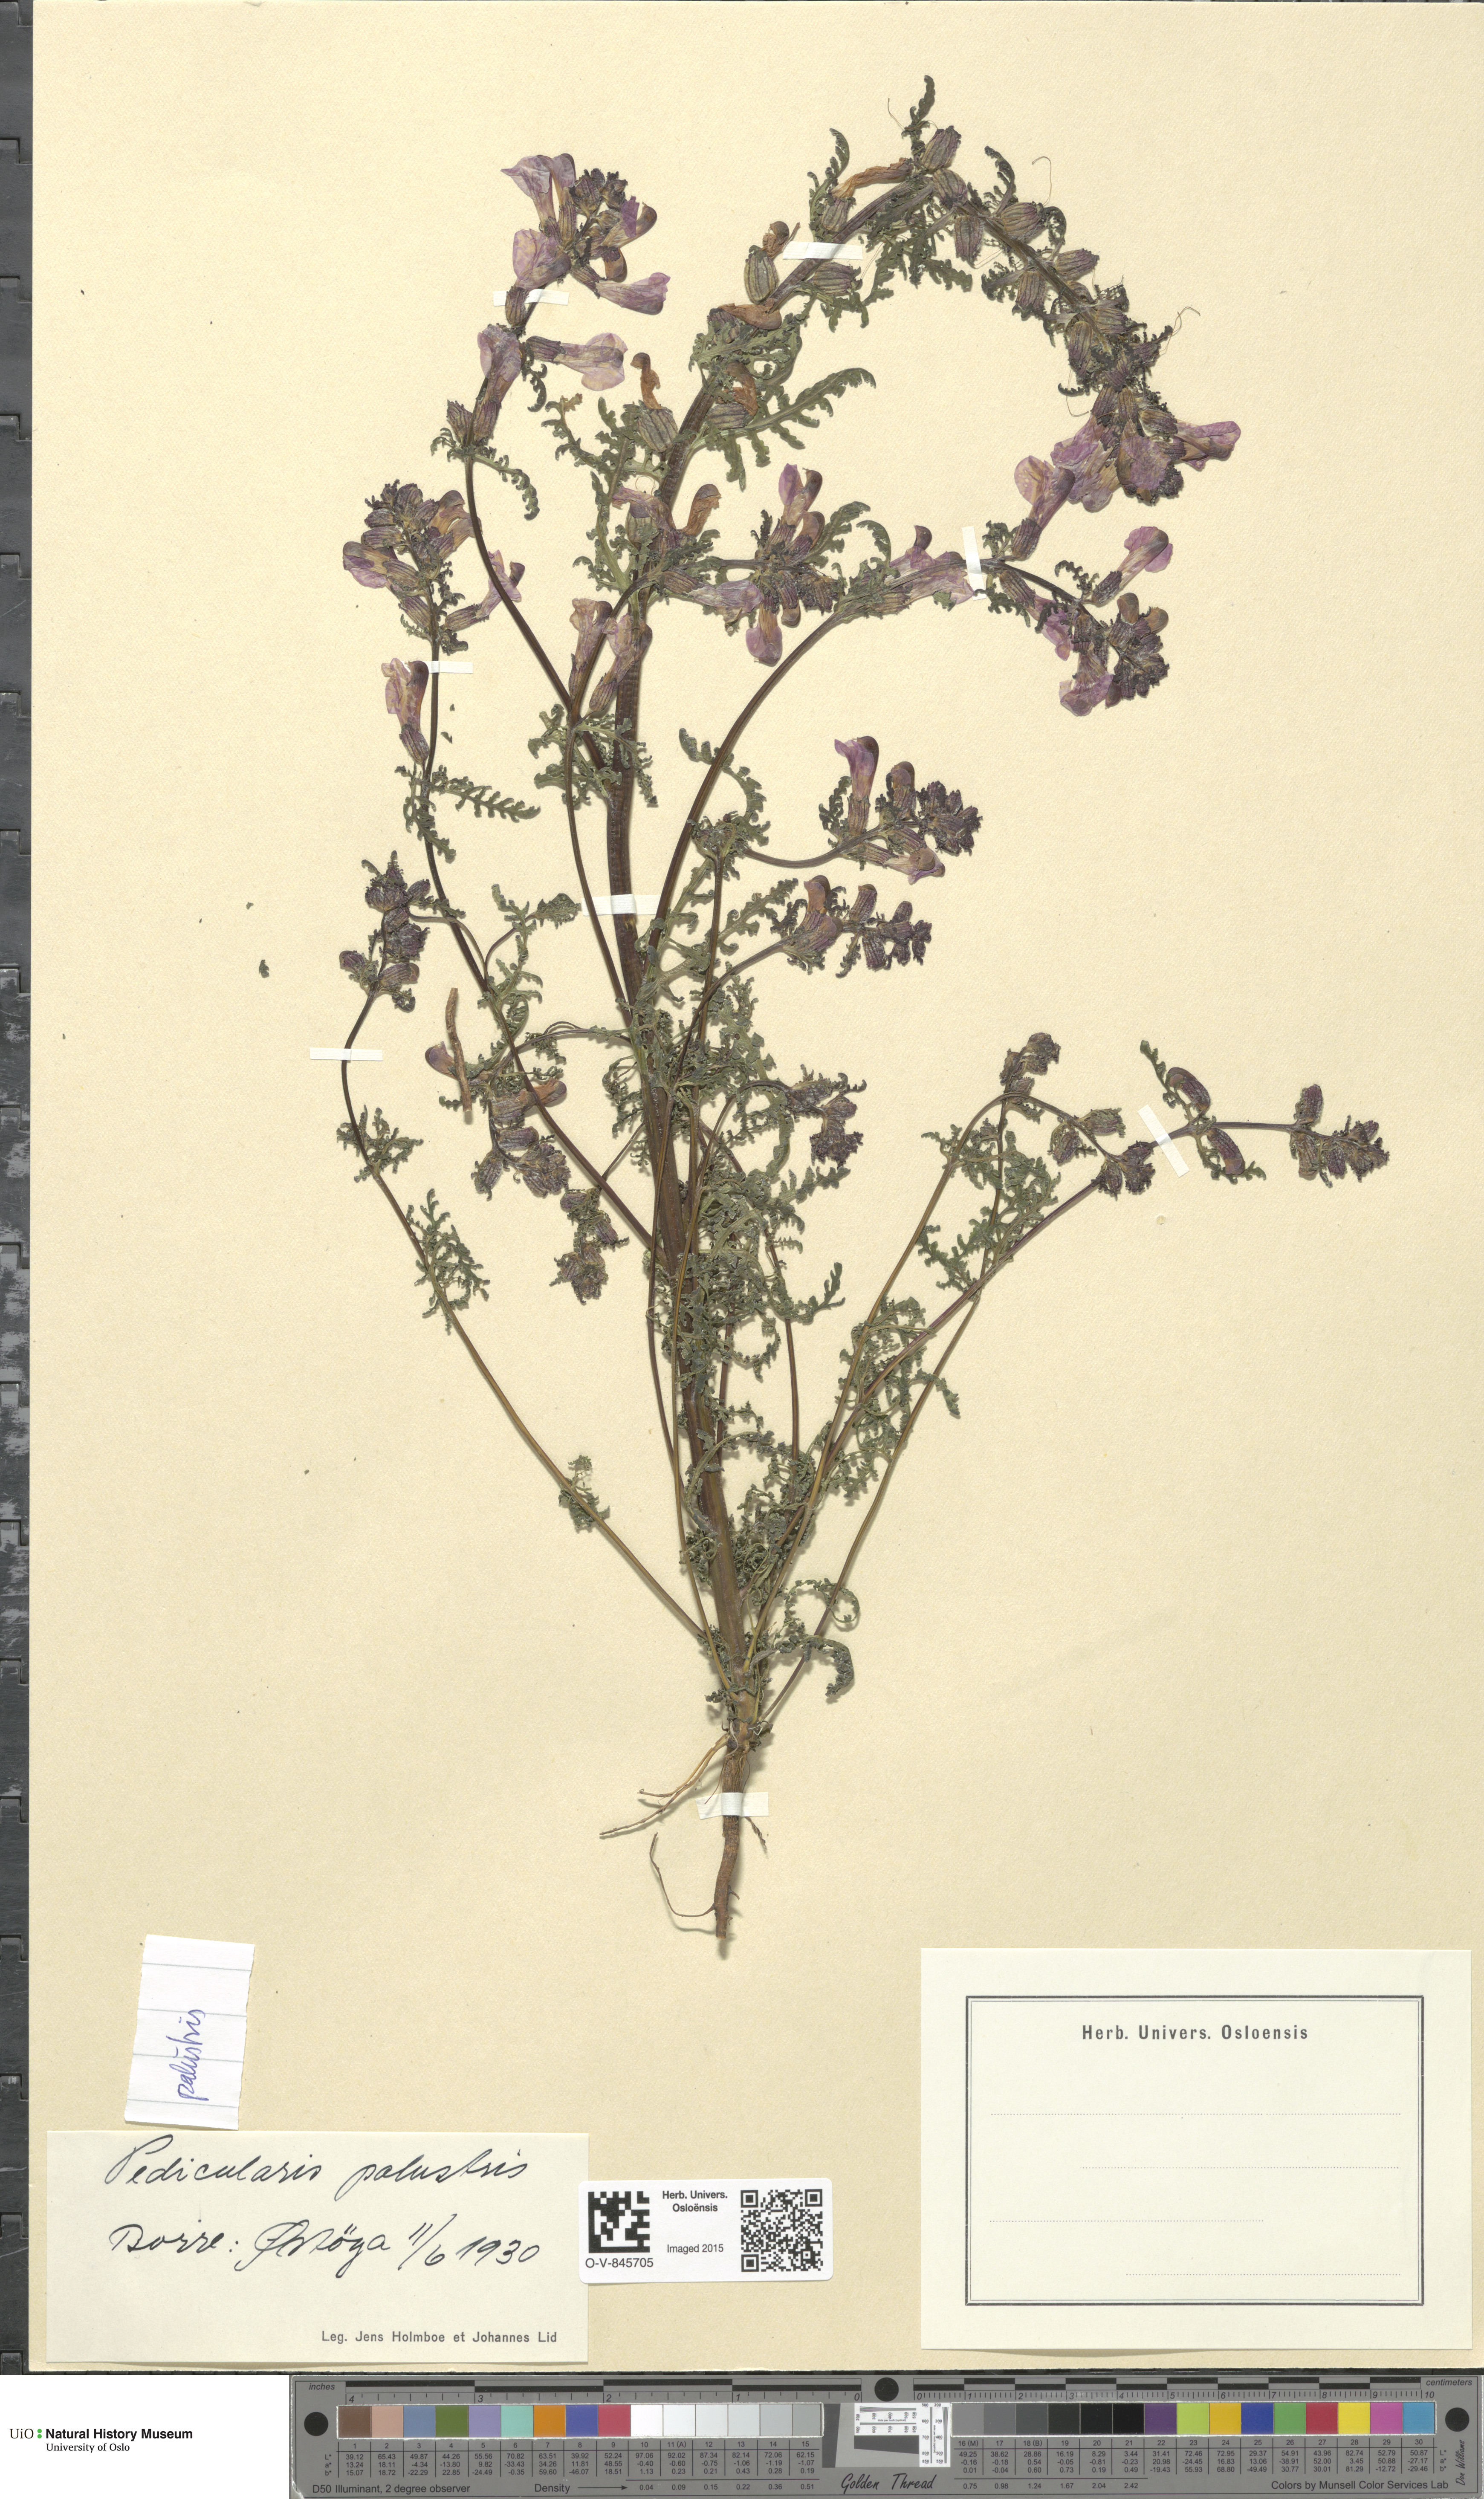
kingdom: Plantae
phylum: Tracheophyta
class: Magnoliopsida
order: Lamiales
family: Orobanchaceae
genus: Pedicularis
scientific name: Pedicularis palustris
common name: Marsh lousewort
